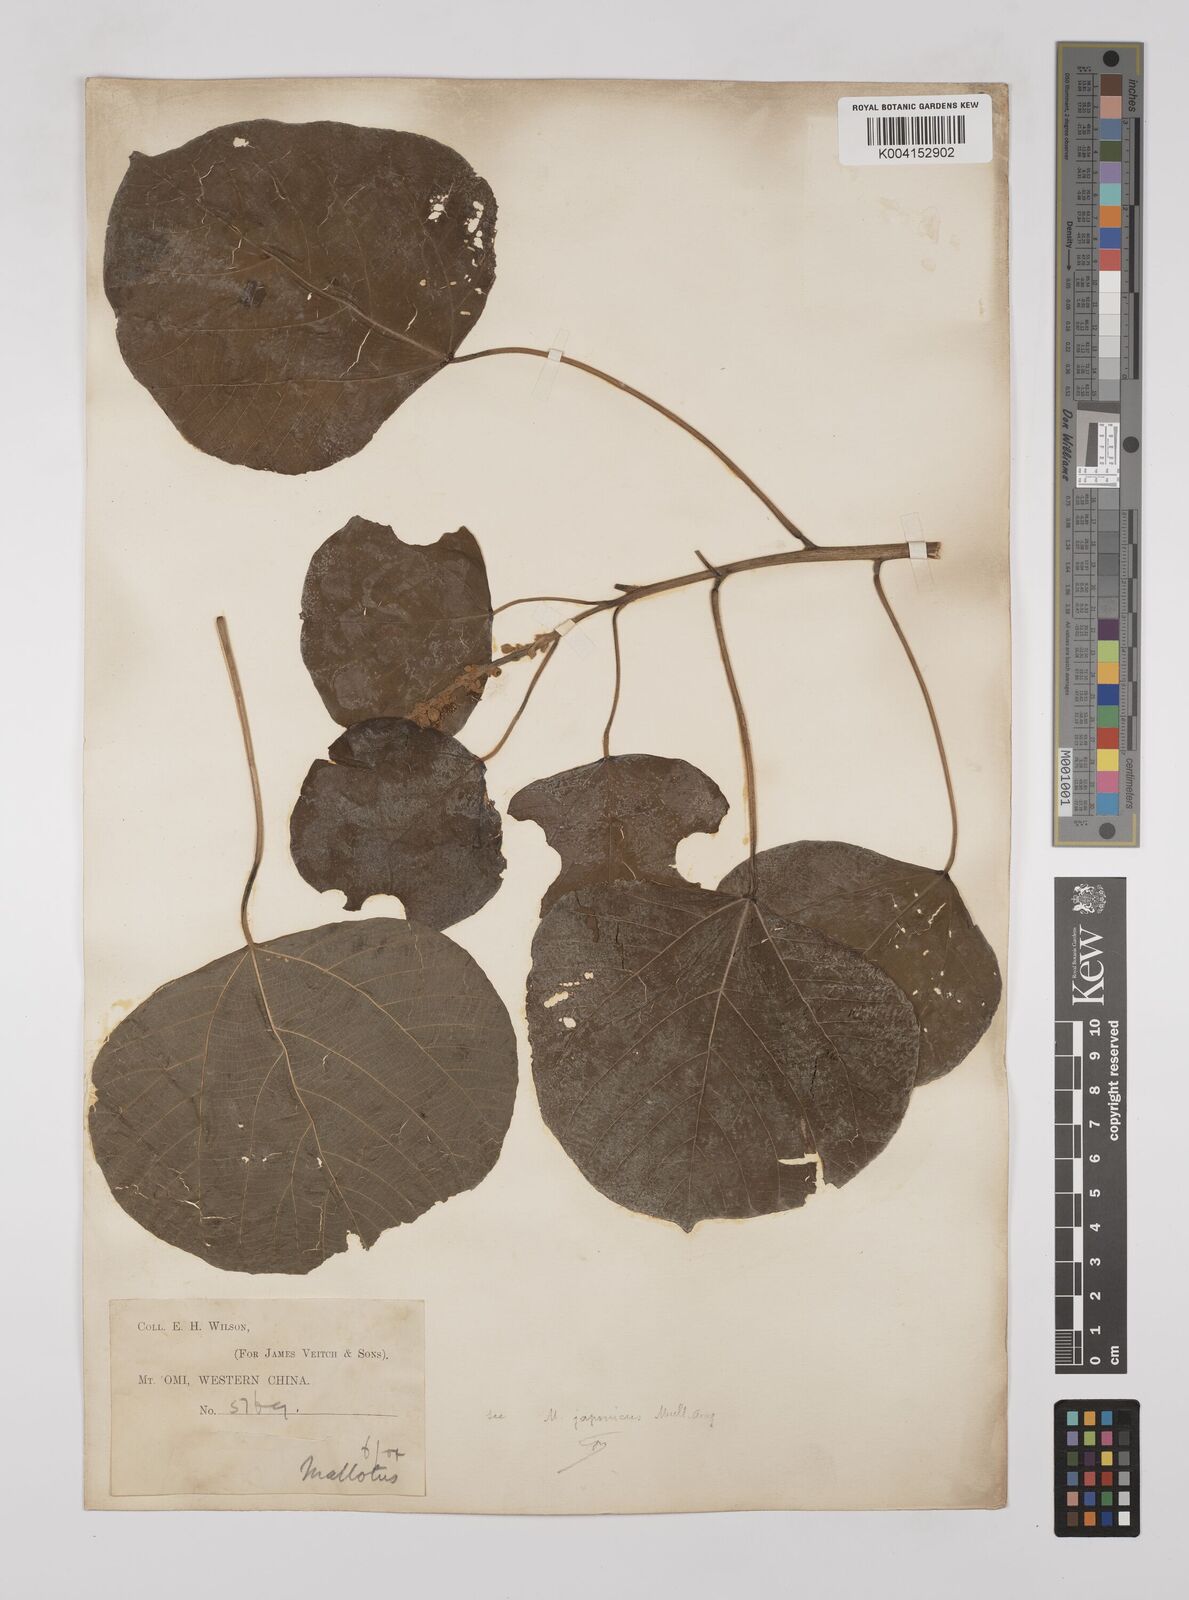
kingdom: Plantae
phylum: Tracheophyta
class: Magnoliopsida
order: Malpighiales
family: Euphorbiaceae
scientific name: Euphorbiaceae
